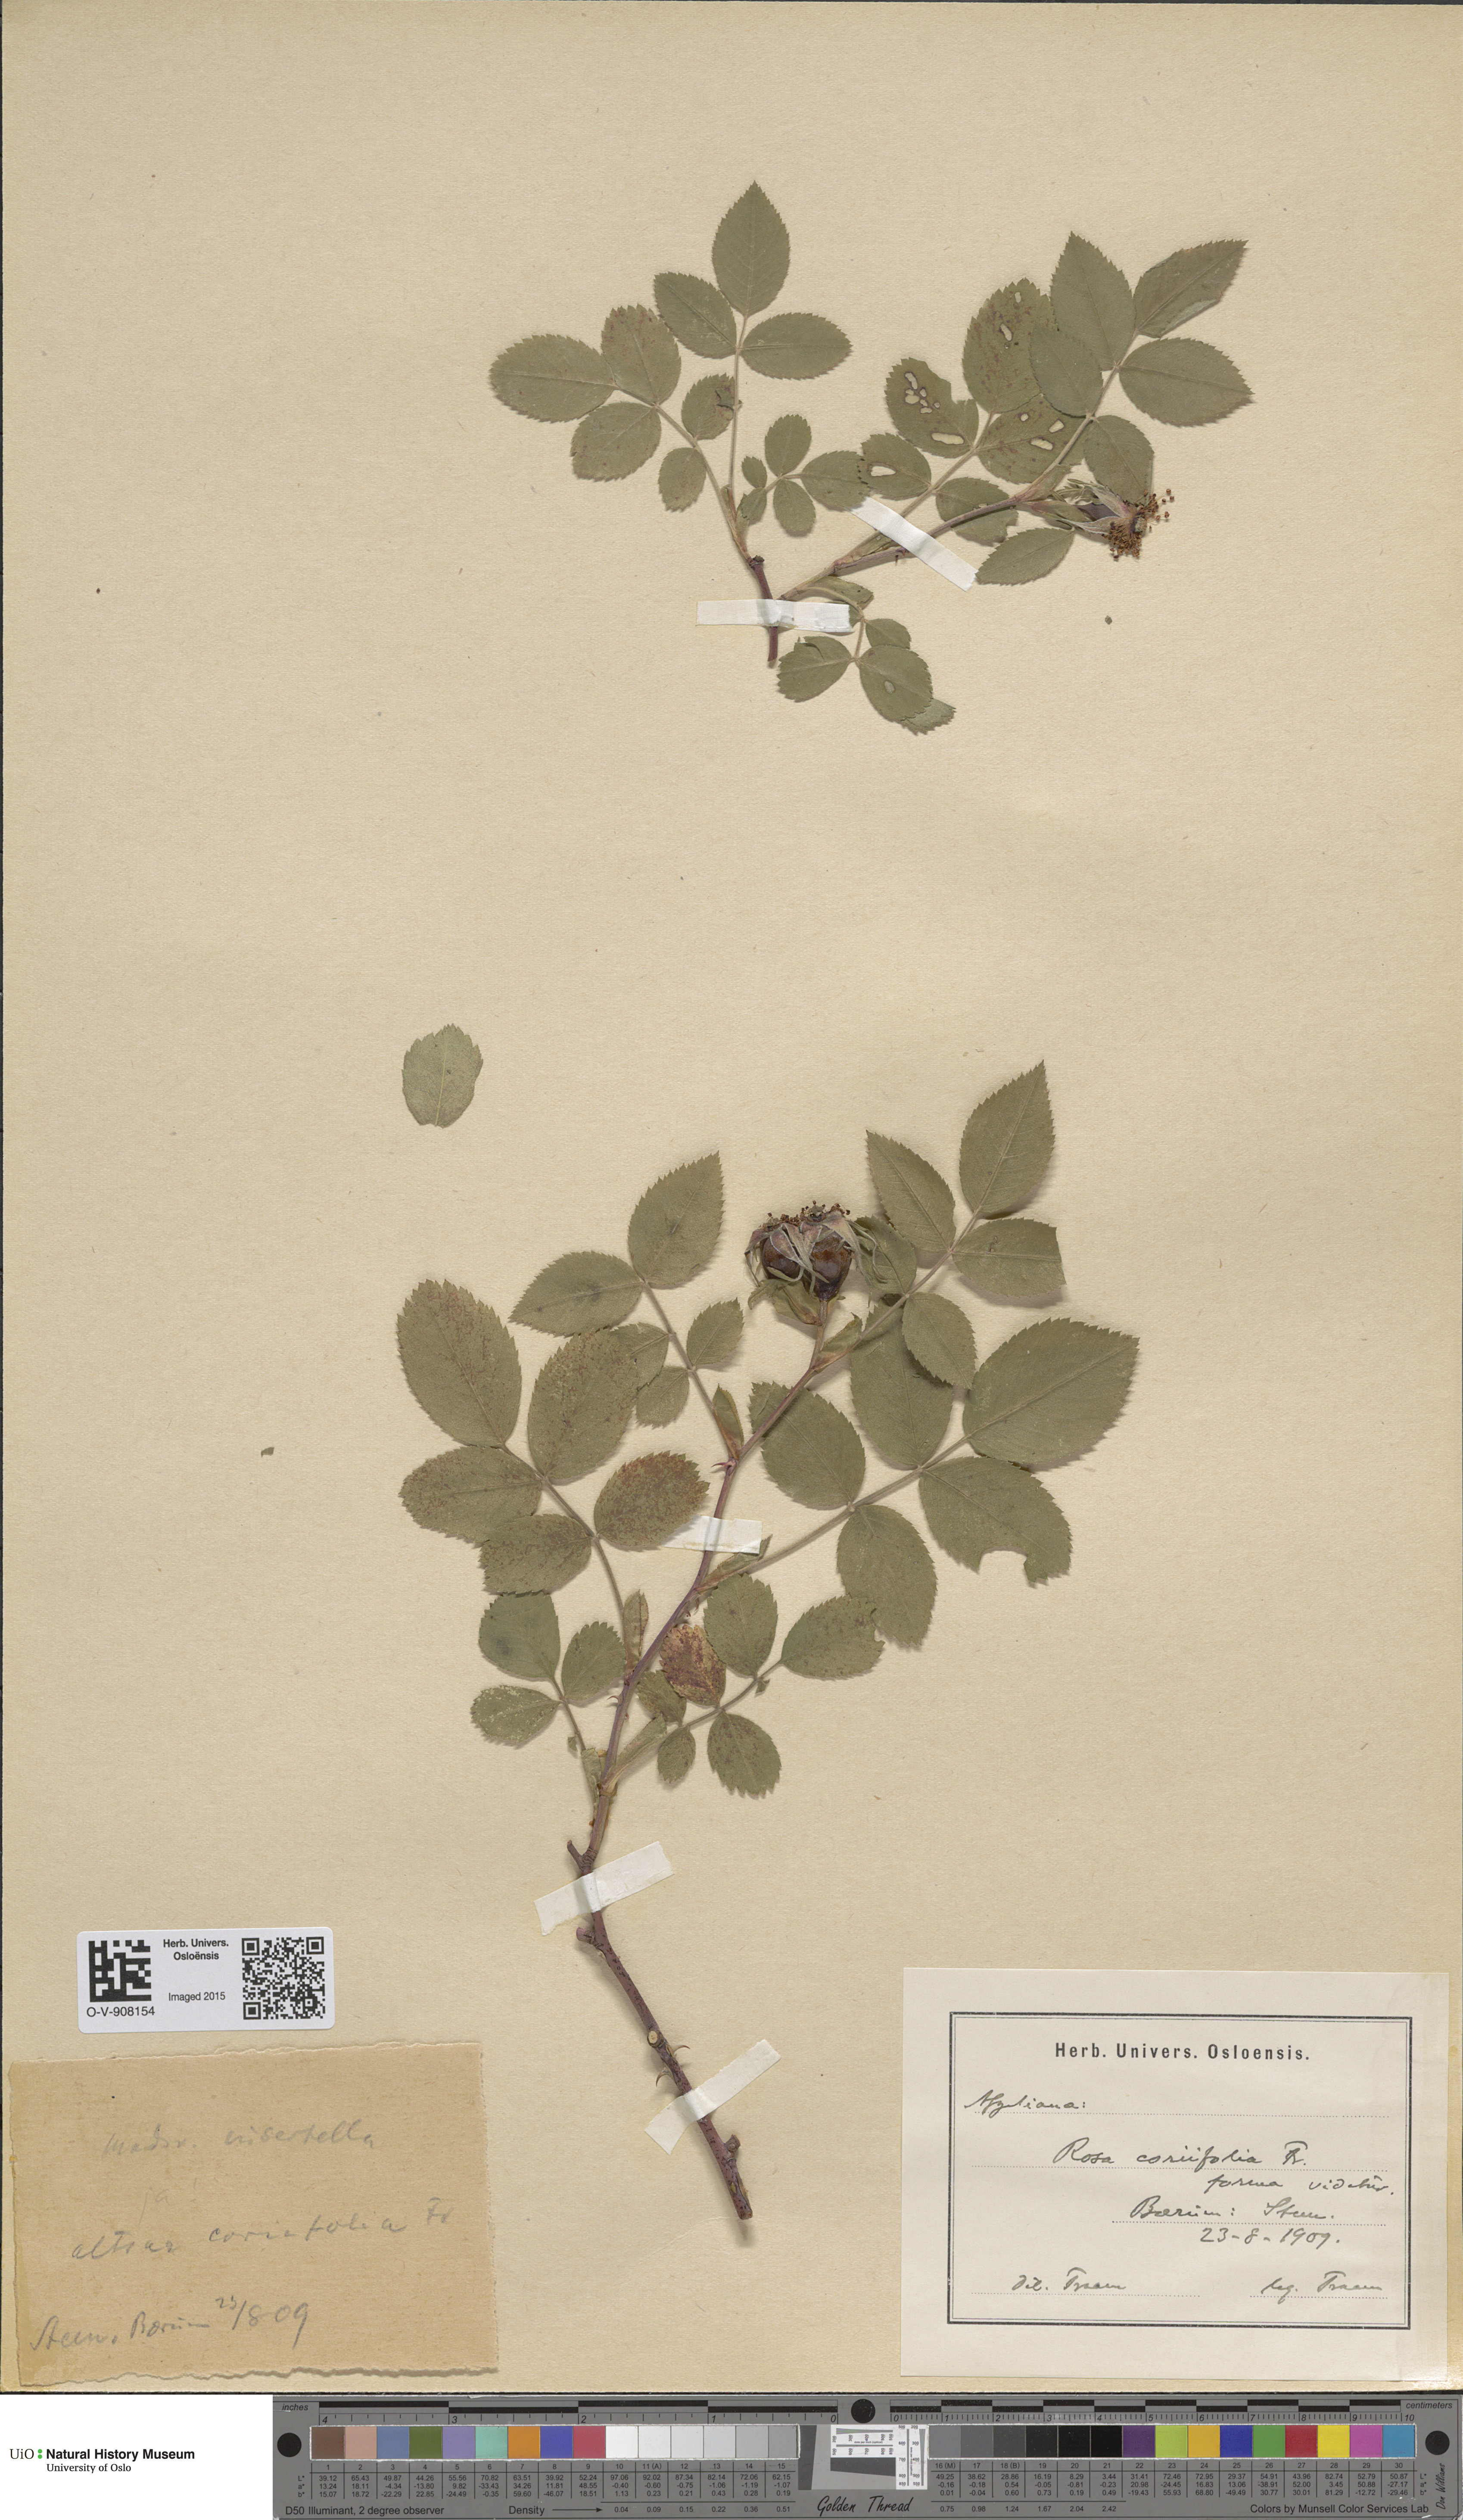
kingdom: Plantae
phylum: Tracheophyta
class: Magnoliopsida
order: Rosales
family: Rosaceae
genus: Rosa
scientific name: Rosa caesia
